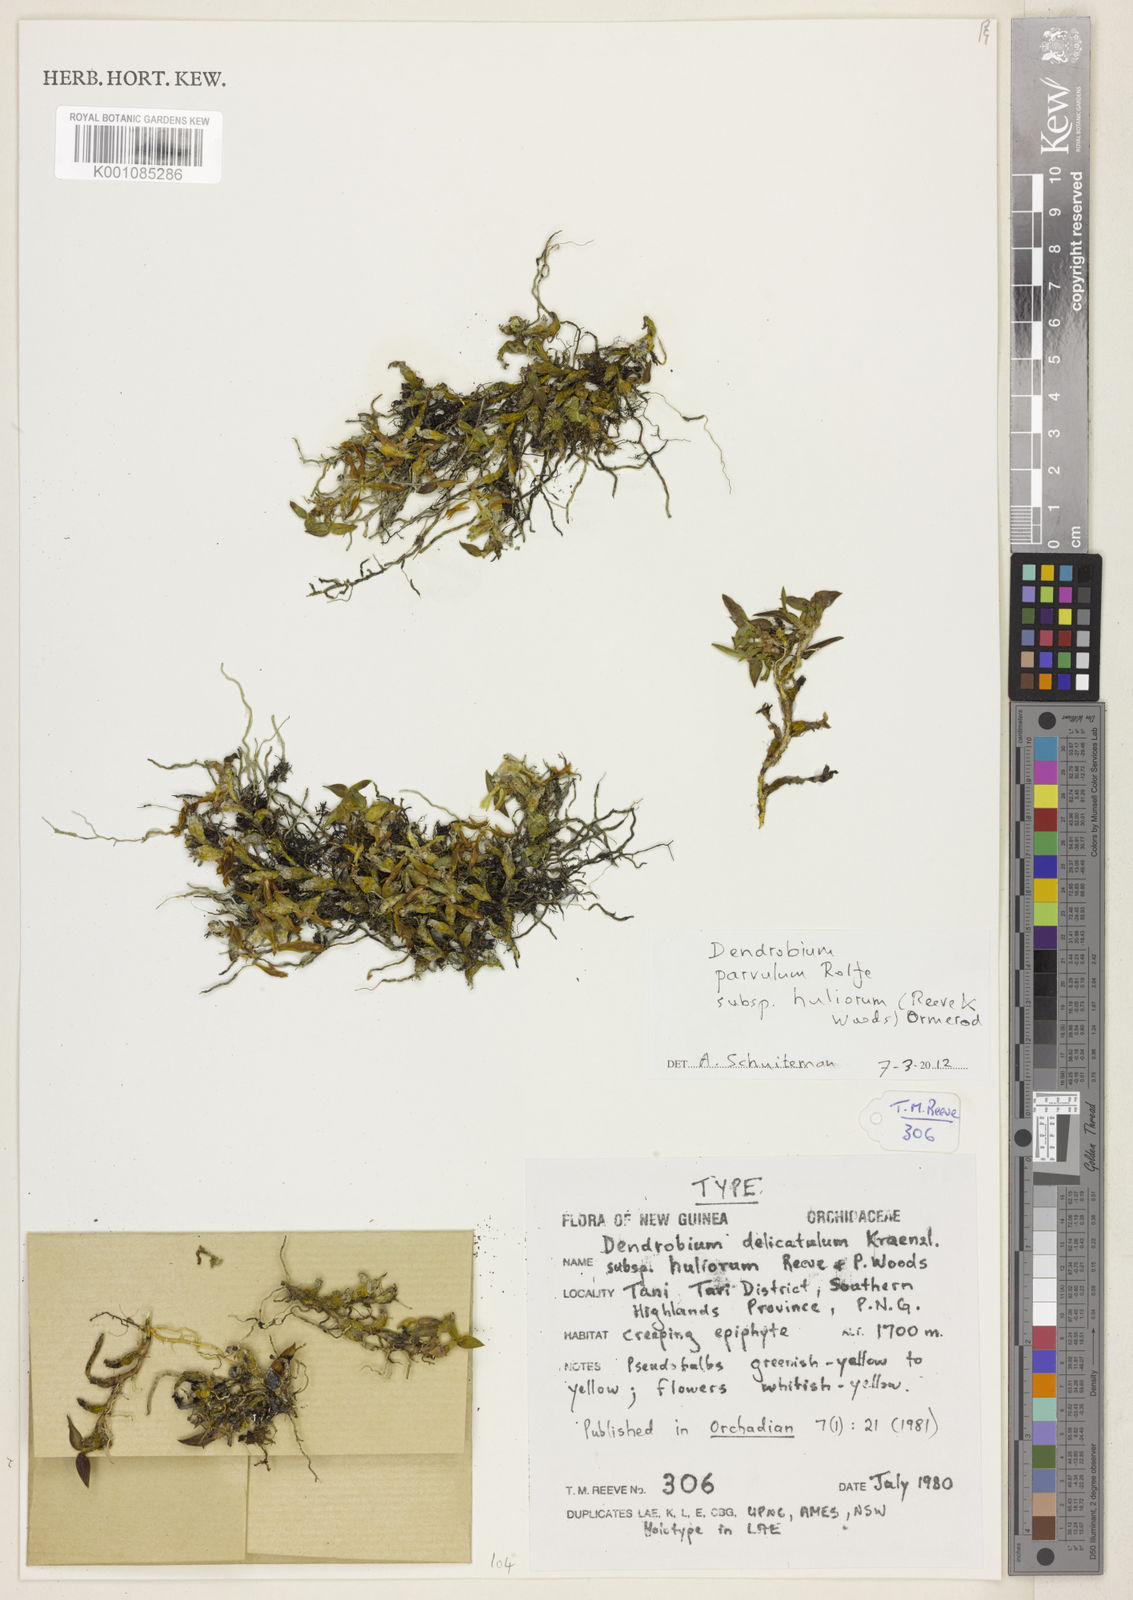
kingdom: Plantae
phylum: Tracheophyta
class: Liliopsida
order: Asparagales
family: Orchidaceae
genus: Dendrobium
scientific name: Dendrobium parvulum
